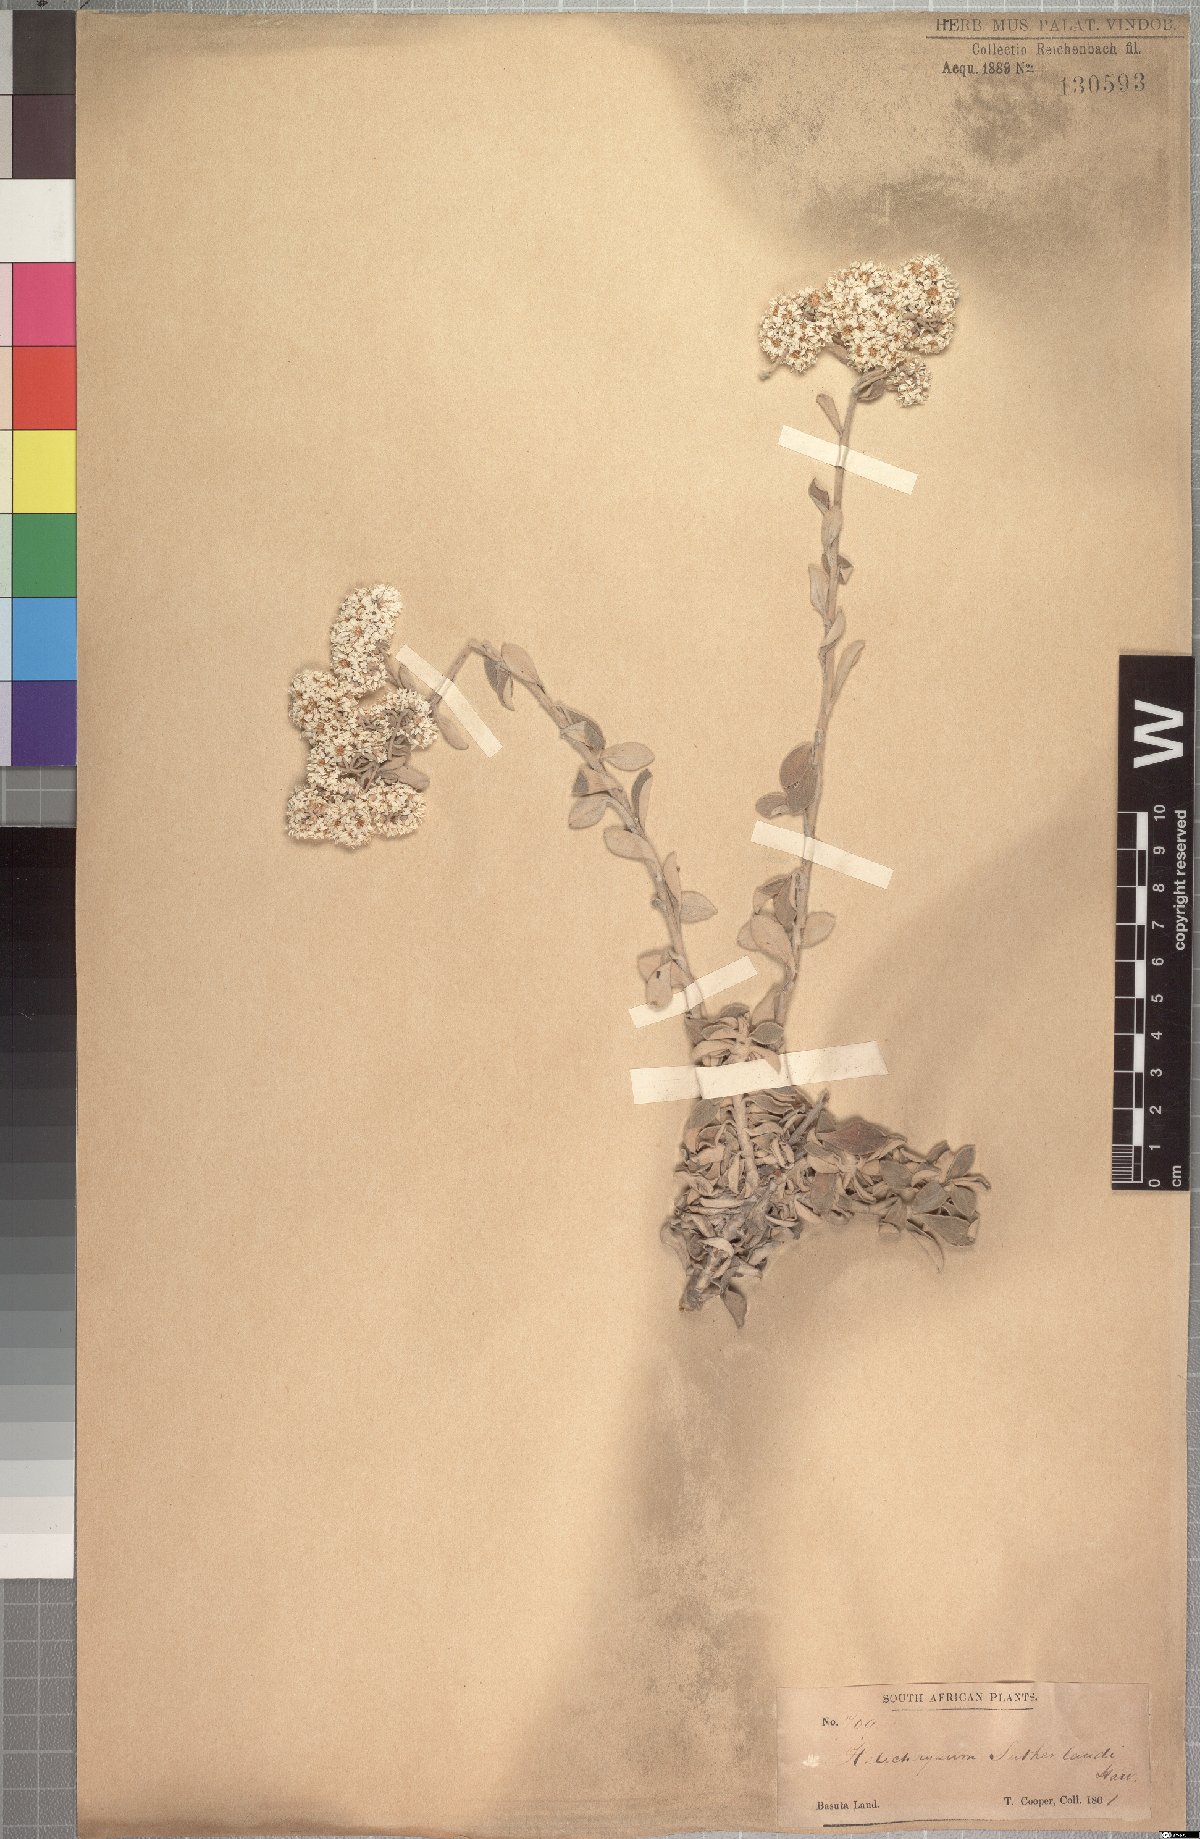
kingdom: Plantae
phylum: Tracheophyta
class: Magnoliopsida
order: Asterales
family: Asteraceae
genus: Helichrysum
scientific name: Helichrysum sutherlandii
